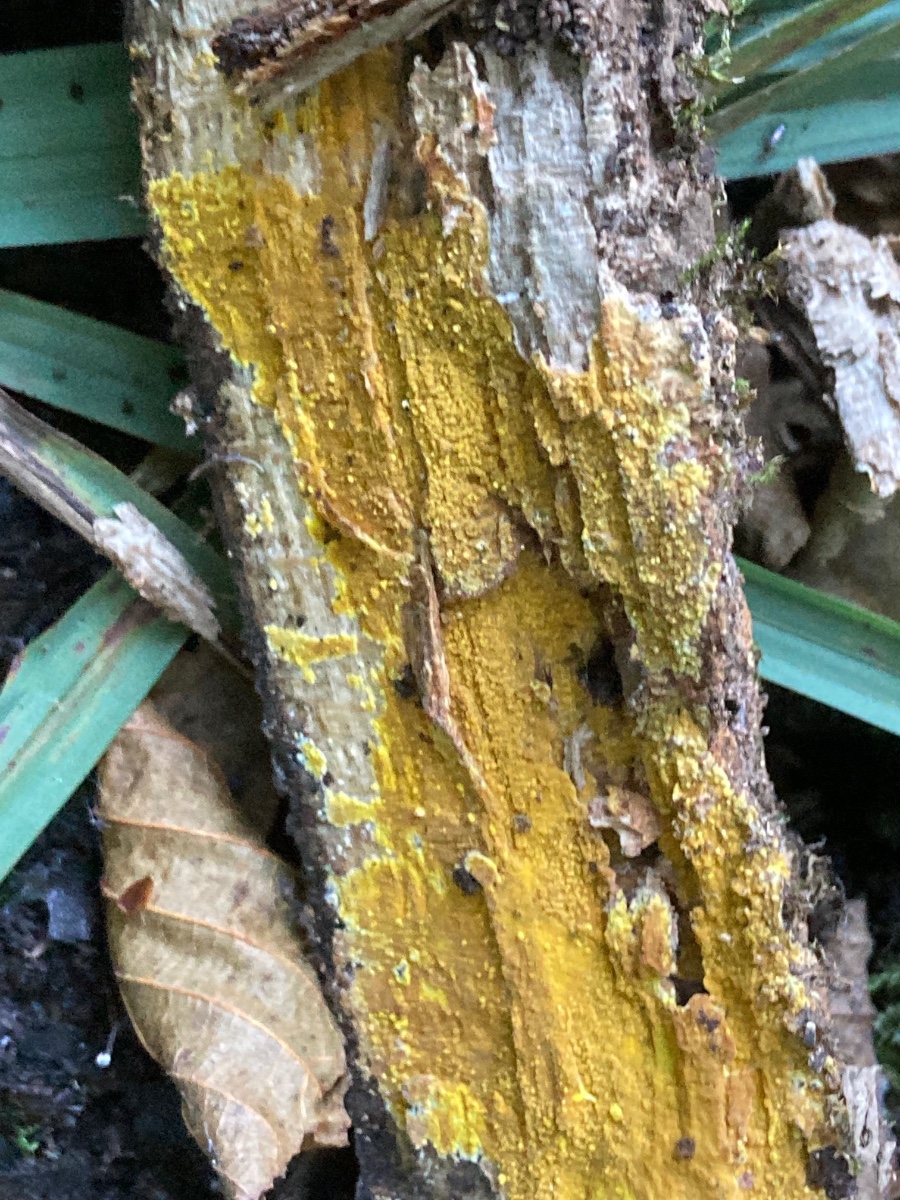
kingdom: Fungi
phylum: Basidiomycota
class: Agaricomycetes
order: Polyporales
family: Meruliaceae
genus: Phlebiodontia
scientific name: Phlebiodontia subochracea
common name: svovl-åresvamp
